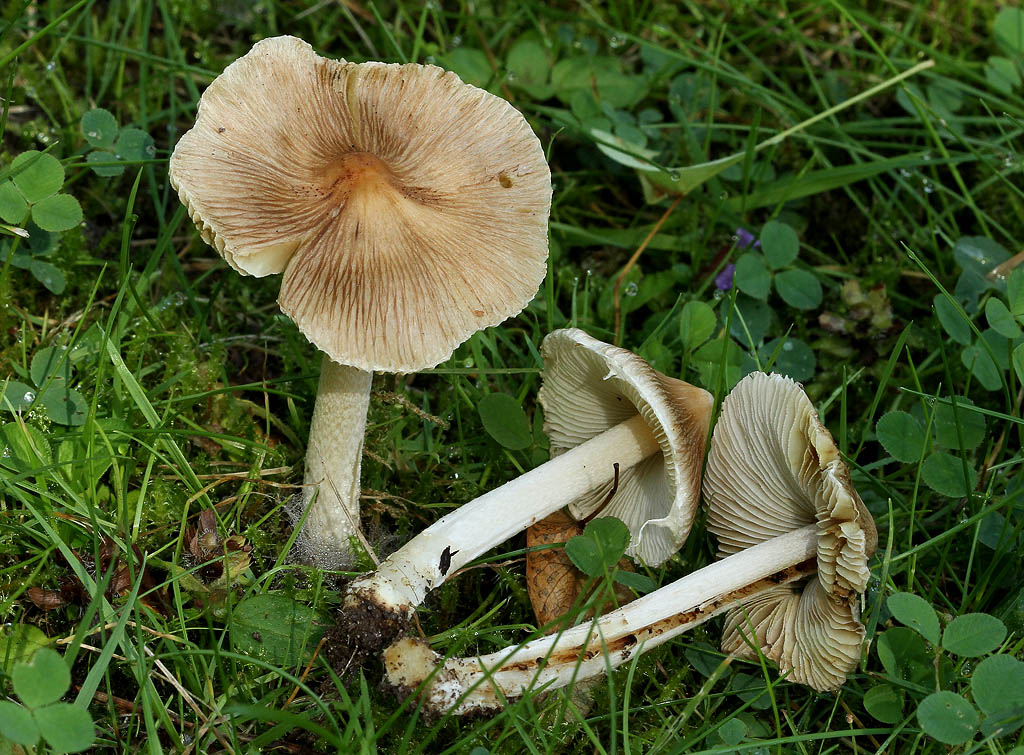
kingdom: Fungi
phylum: Basidiomycota
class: Agaricomycetes
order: Agaricales
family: Inocybaceae
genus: Pseudosperma
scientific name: Pseudosperma rimosum
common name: gulbladet trævlhat
